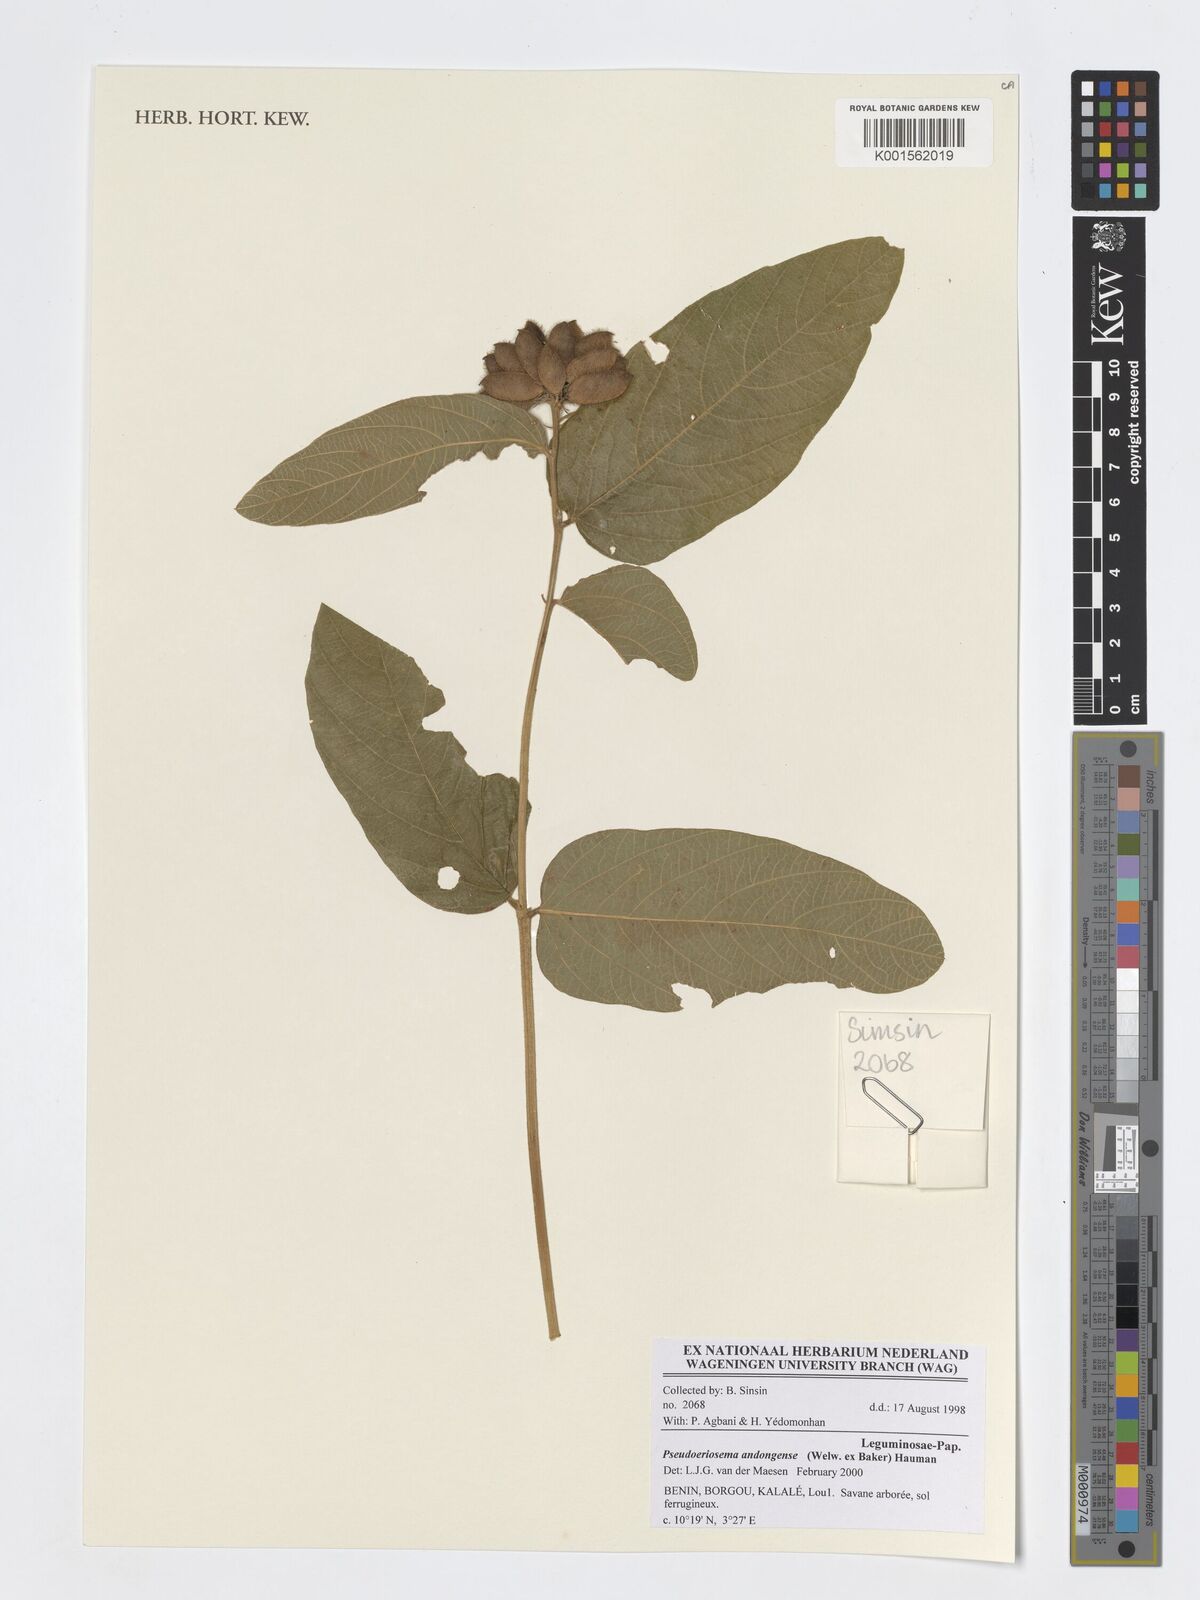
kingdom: Plantae
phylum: Tracheophyta
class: Magnoliopsida
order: Fabales
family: Fabaceae
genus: Pseudoeriosema
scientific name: Pseudoeriosema andongense
